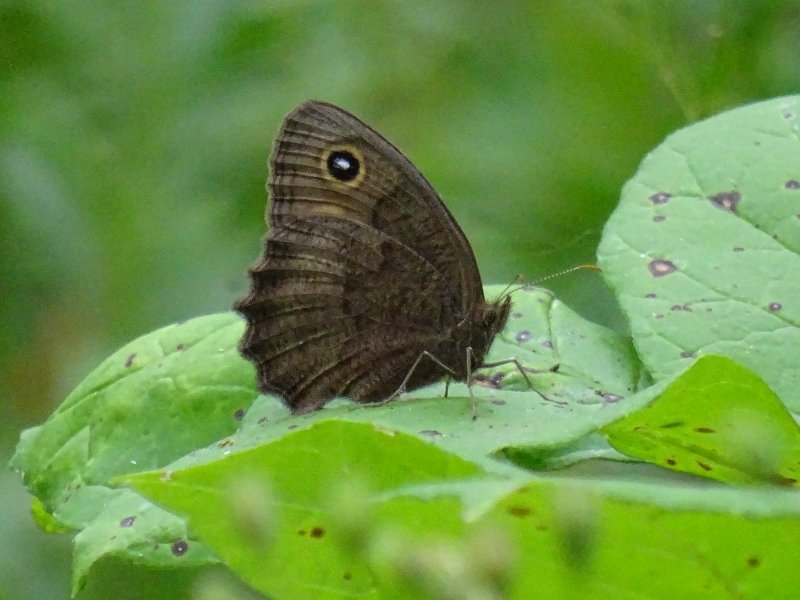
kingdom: Animalia
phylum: Arthropoda
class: Insecta
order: Lepidoptera
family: Nymphalidae
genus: Cercyonis
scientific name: Cercyonis pegala
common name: Common Wood-Nymph
